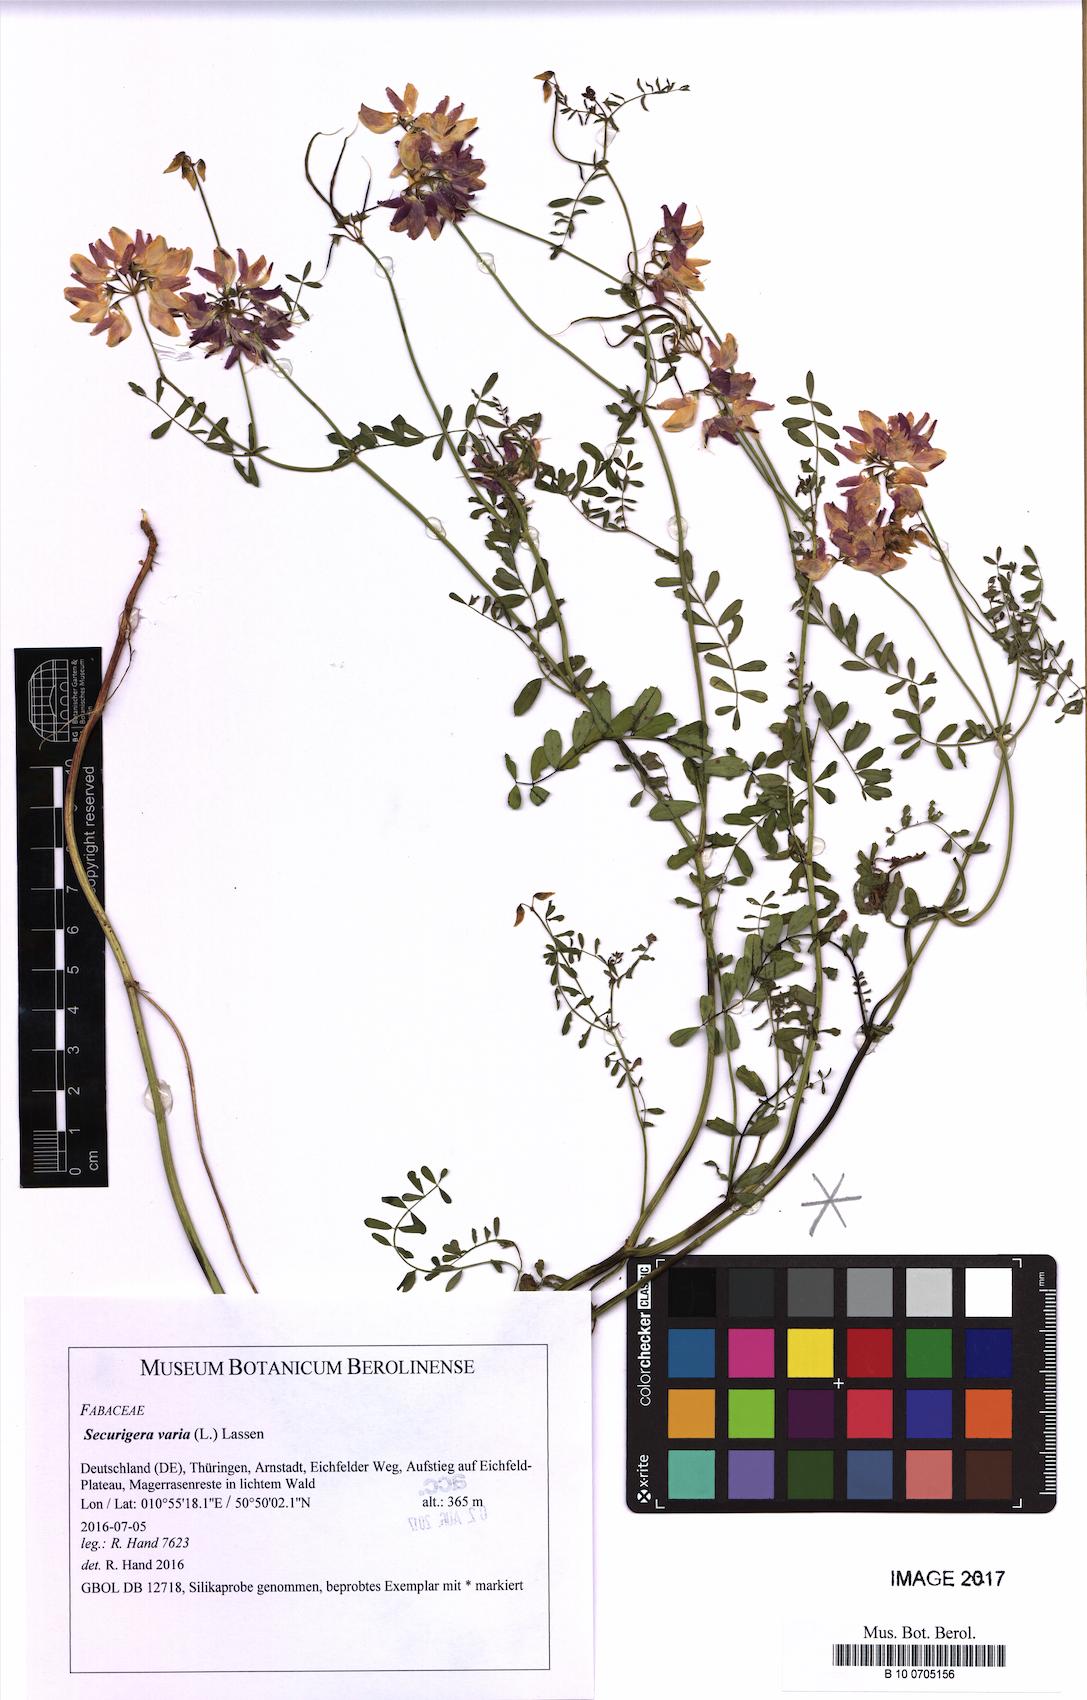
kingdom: Plantae
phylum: Tracheophyta
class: Magnoliopsida
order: Fabales
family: Fabaceae
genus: Coronilla
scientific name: Coronilla varia
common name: Crownvetch
